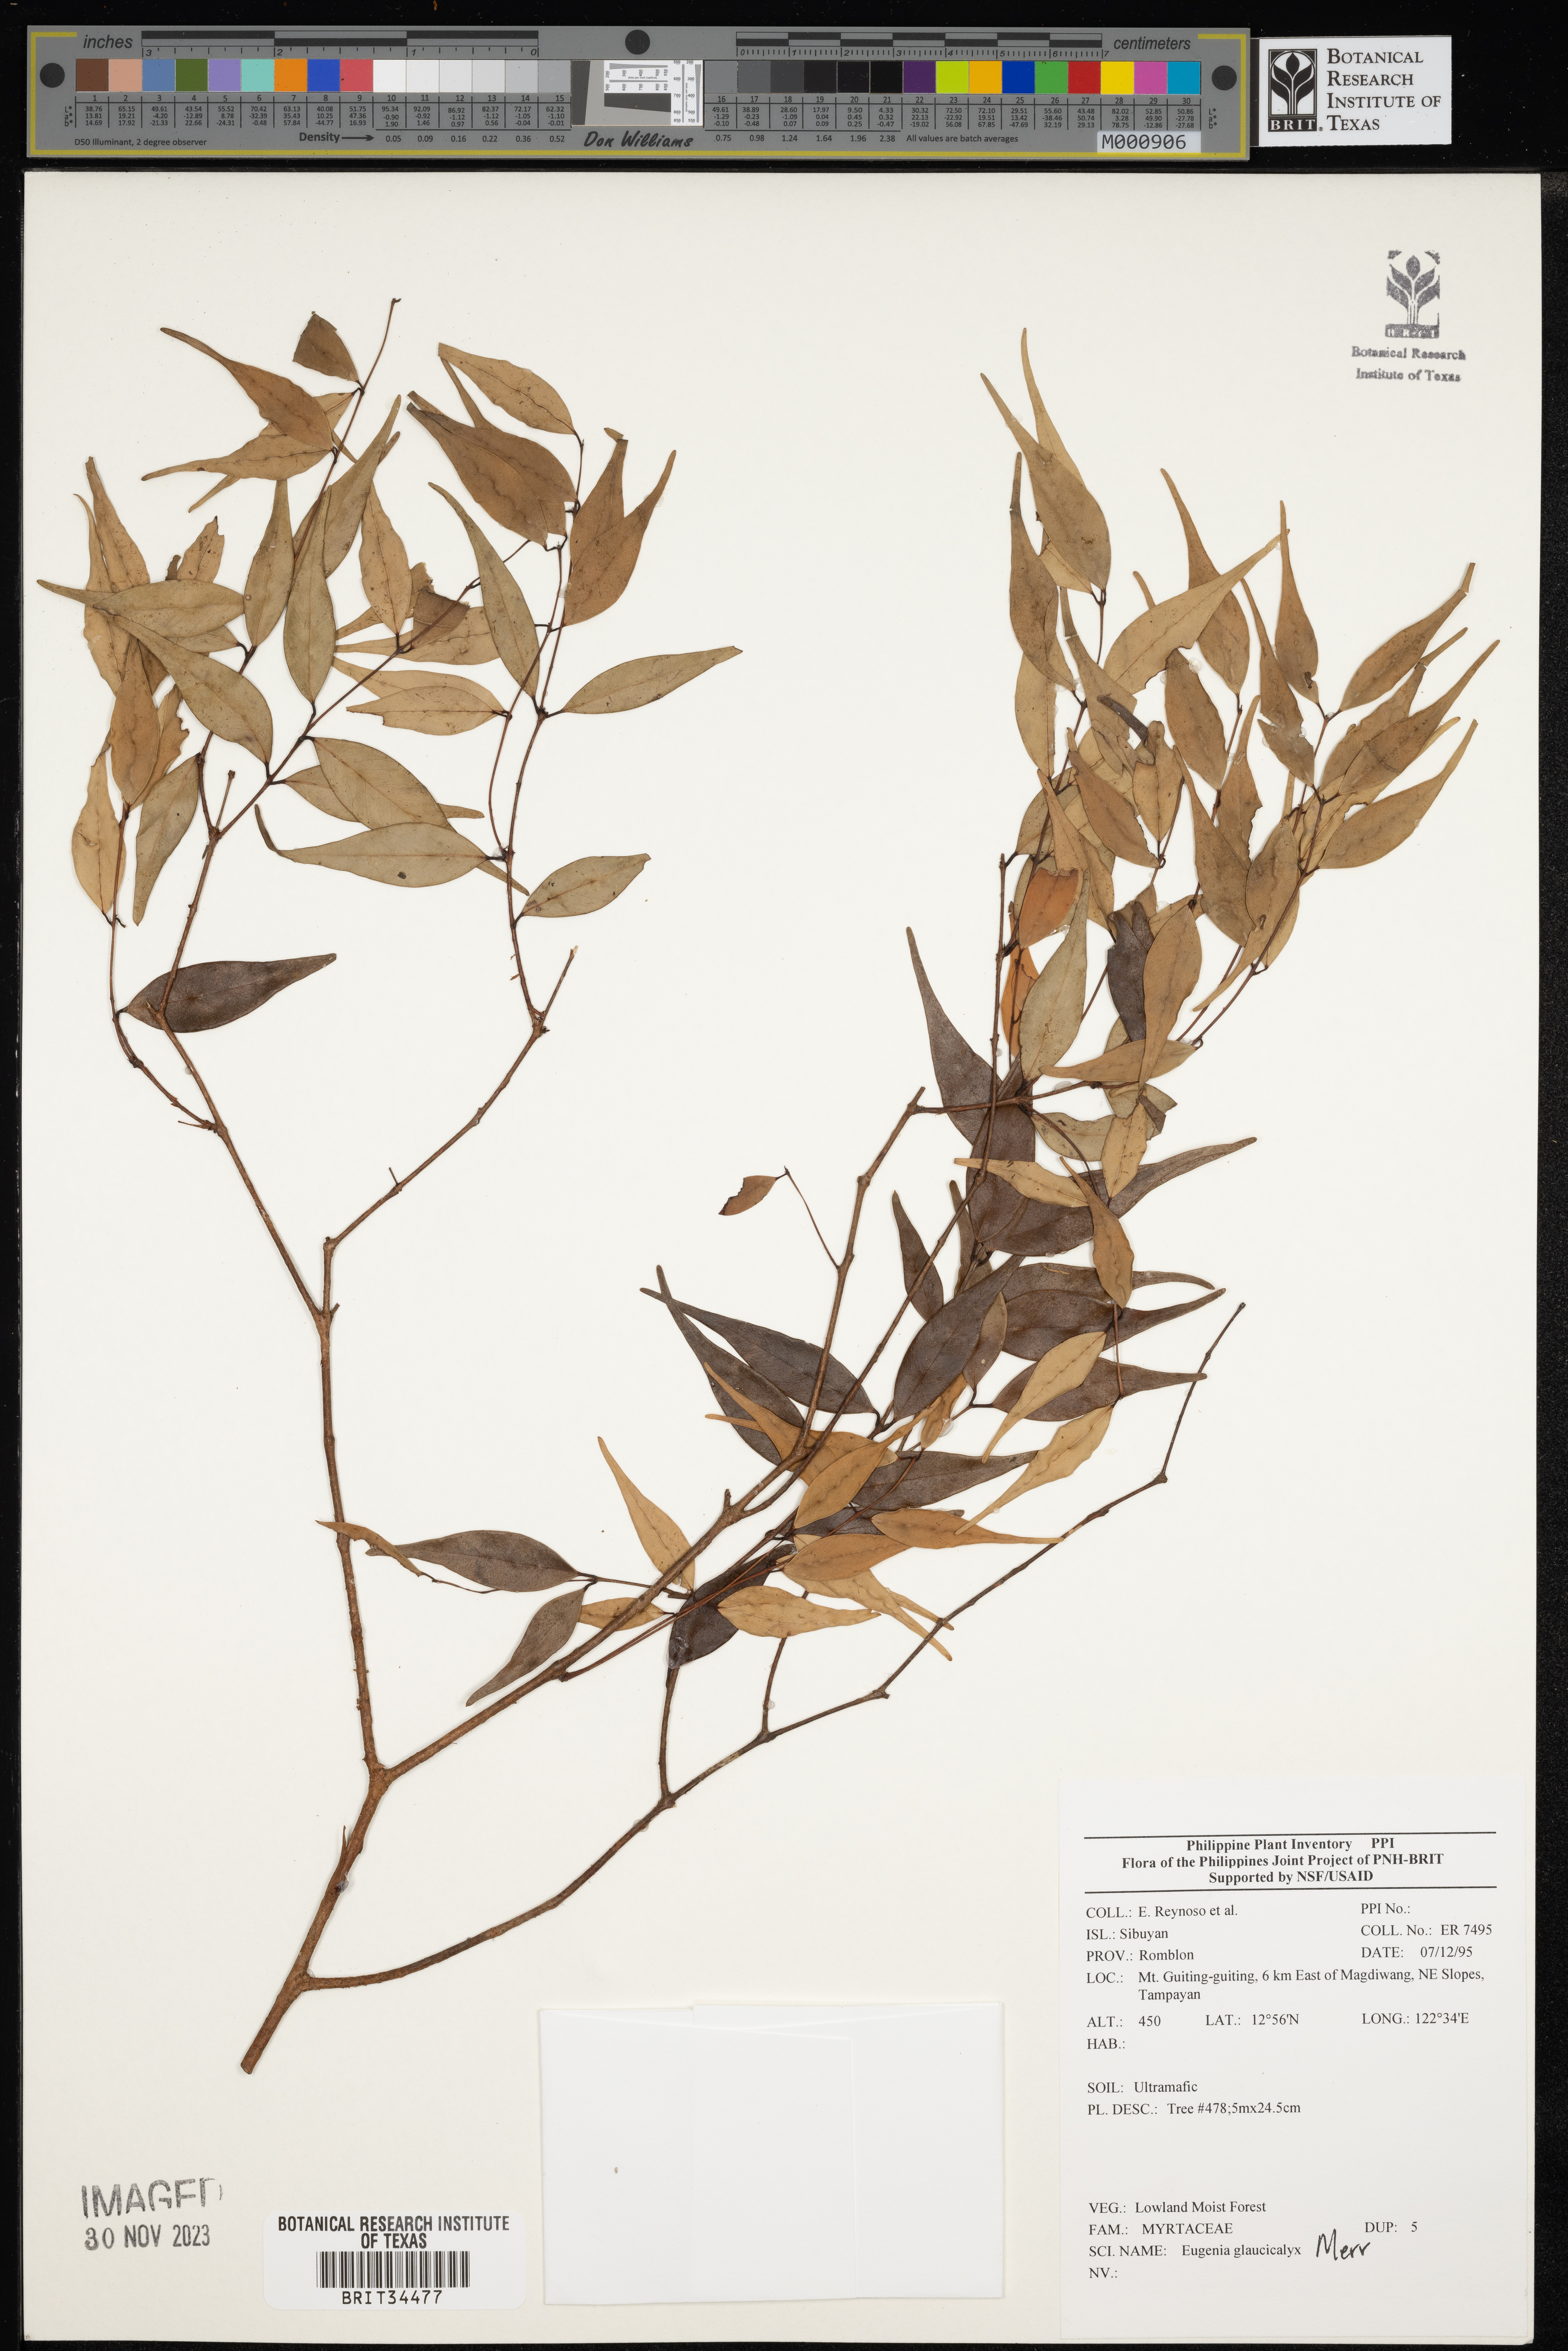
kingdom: Plantae
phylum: Tracheophyta
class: Magnoliopsida
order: Myrtales
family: Myrtaceae
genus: Eugenia
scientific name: Eugenia
